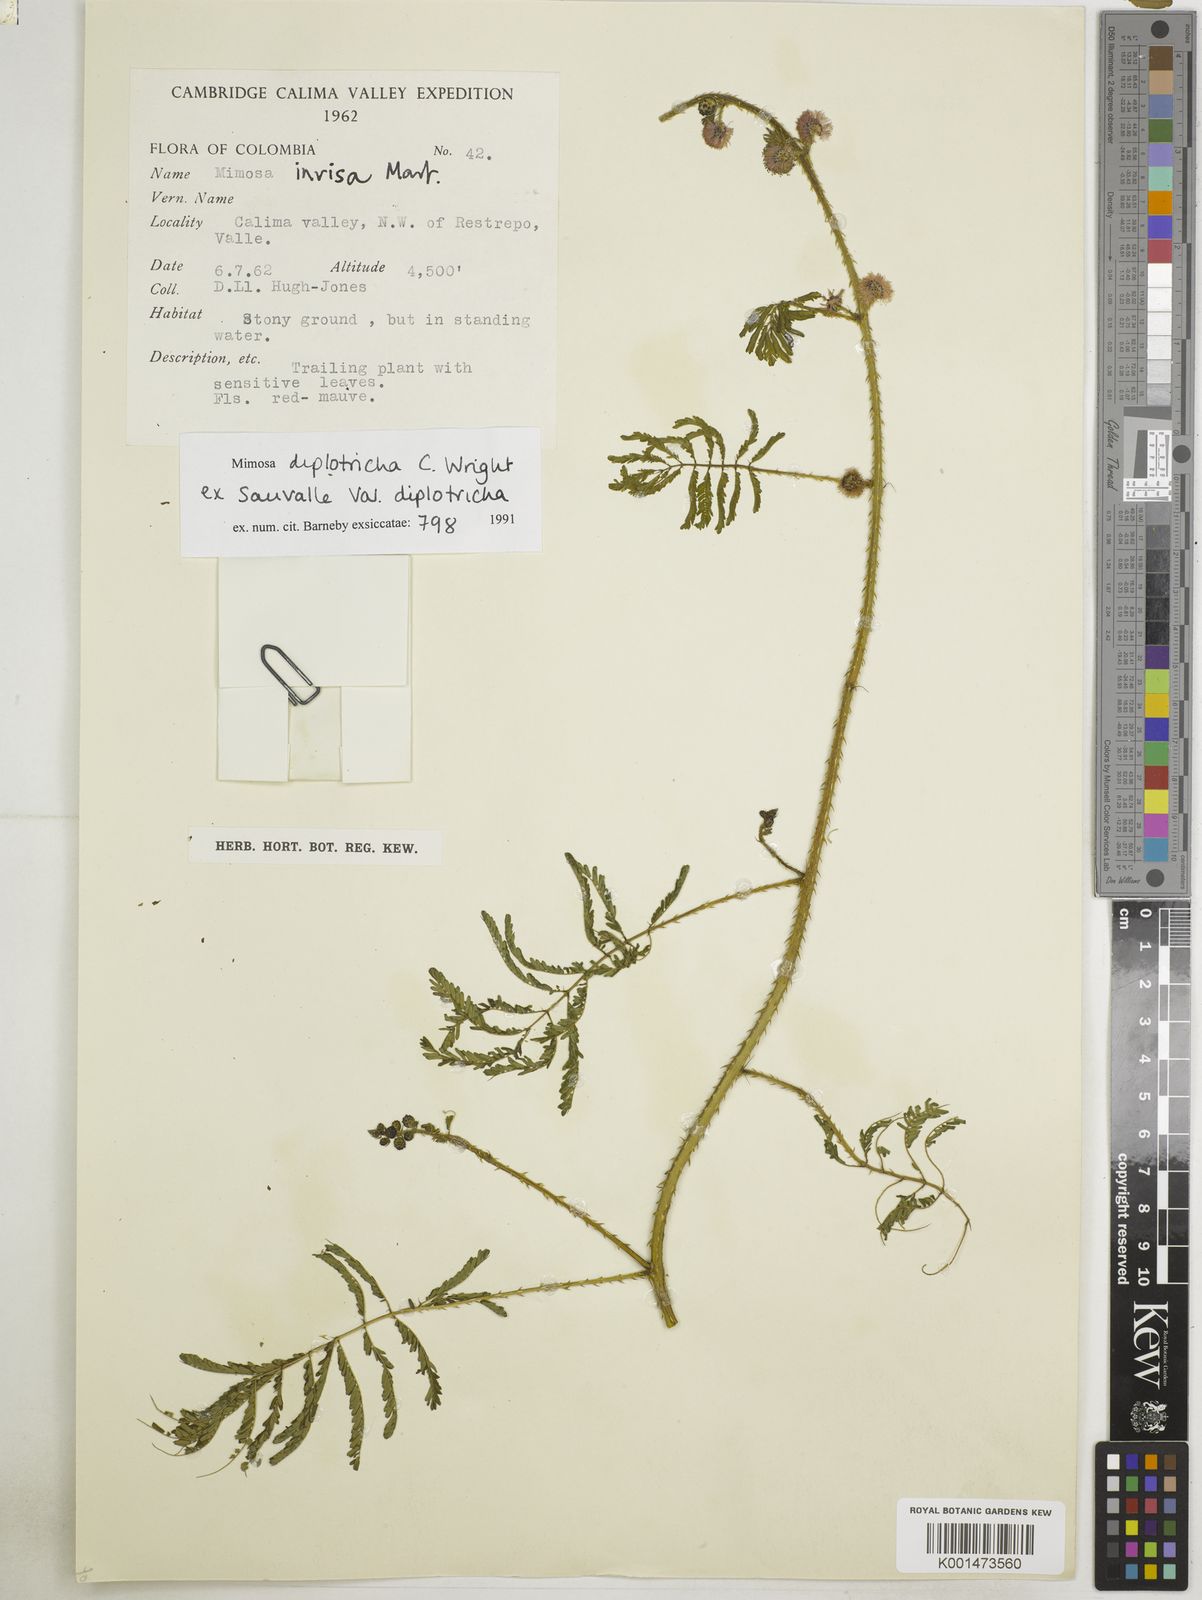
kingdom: Plantae
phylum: Tracheophyta
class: Magnoliopsida
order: Fabales
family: Fabaceae
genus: Mimosa
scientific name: Mimosa diplotricha
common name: Giant sensitive-plant
